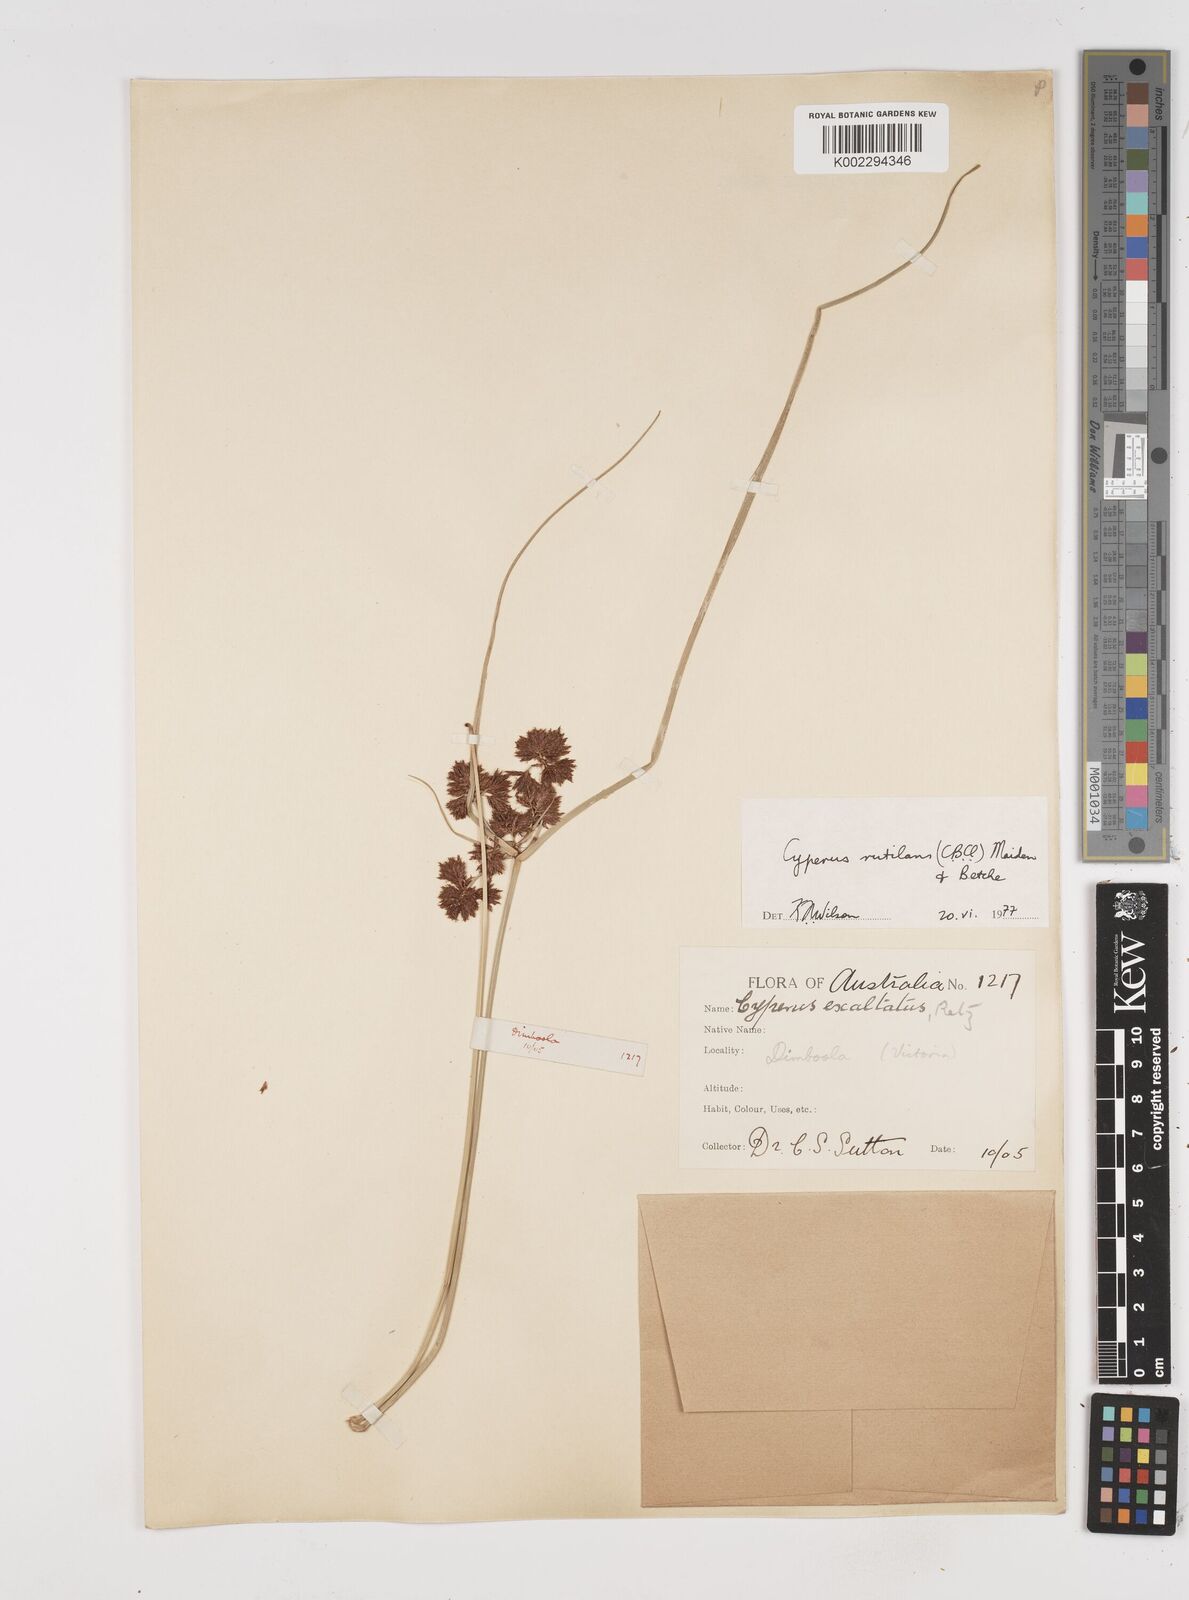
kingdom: Plantae
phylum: Tracheophyta
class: Liliopsida
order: Poales
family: Cyperaceae
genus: Cyperus
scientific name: Cyperus lhotskyanus
